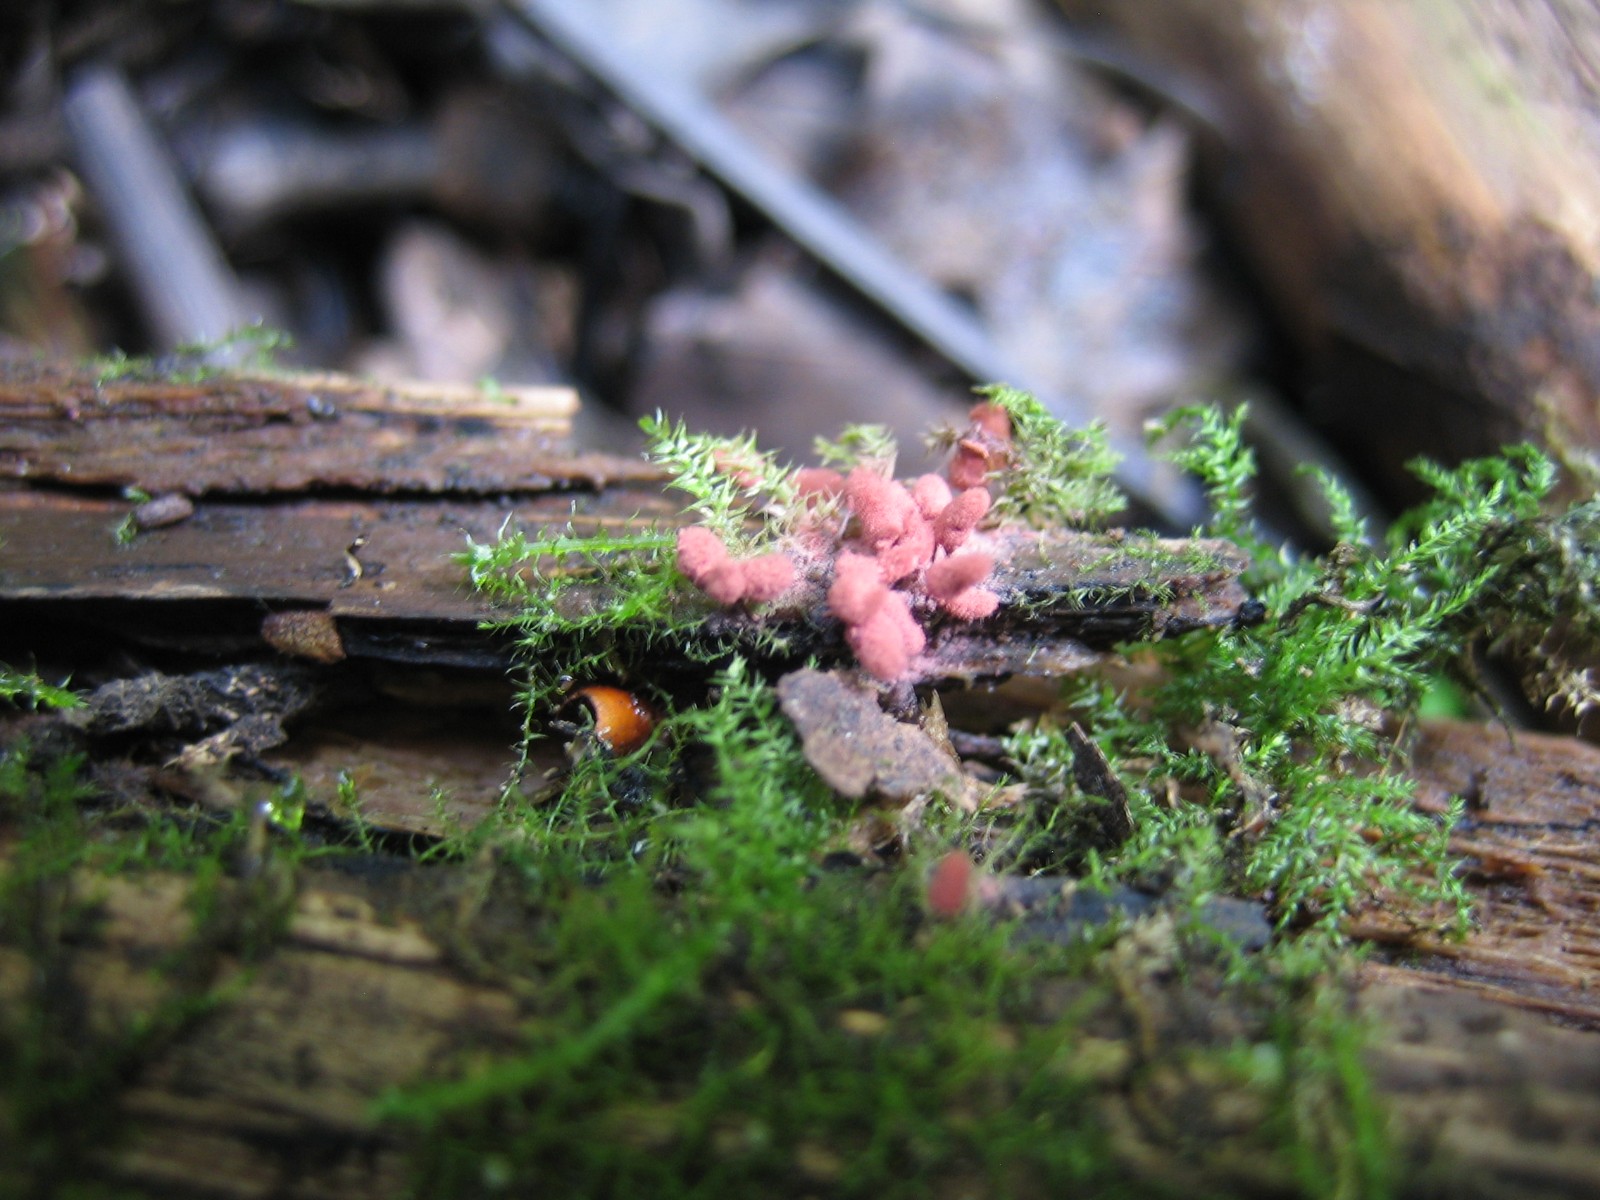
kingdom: Protozoa
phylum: Amoebozoa
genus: Arcyria
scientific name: Arcyria
